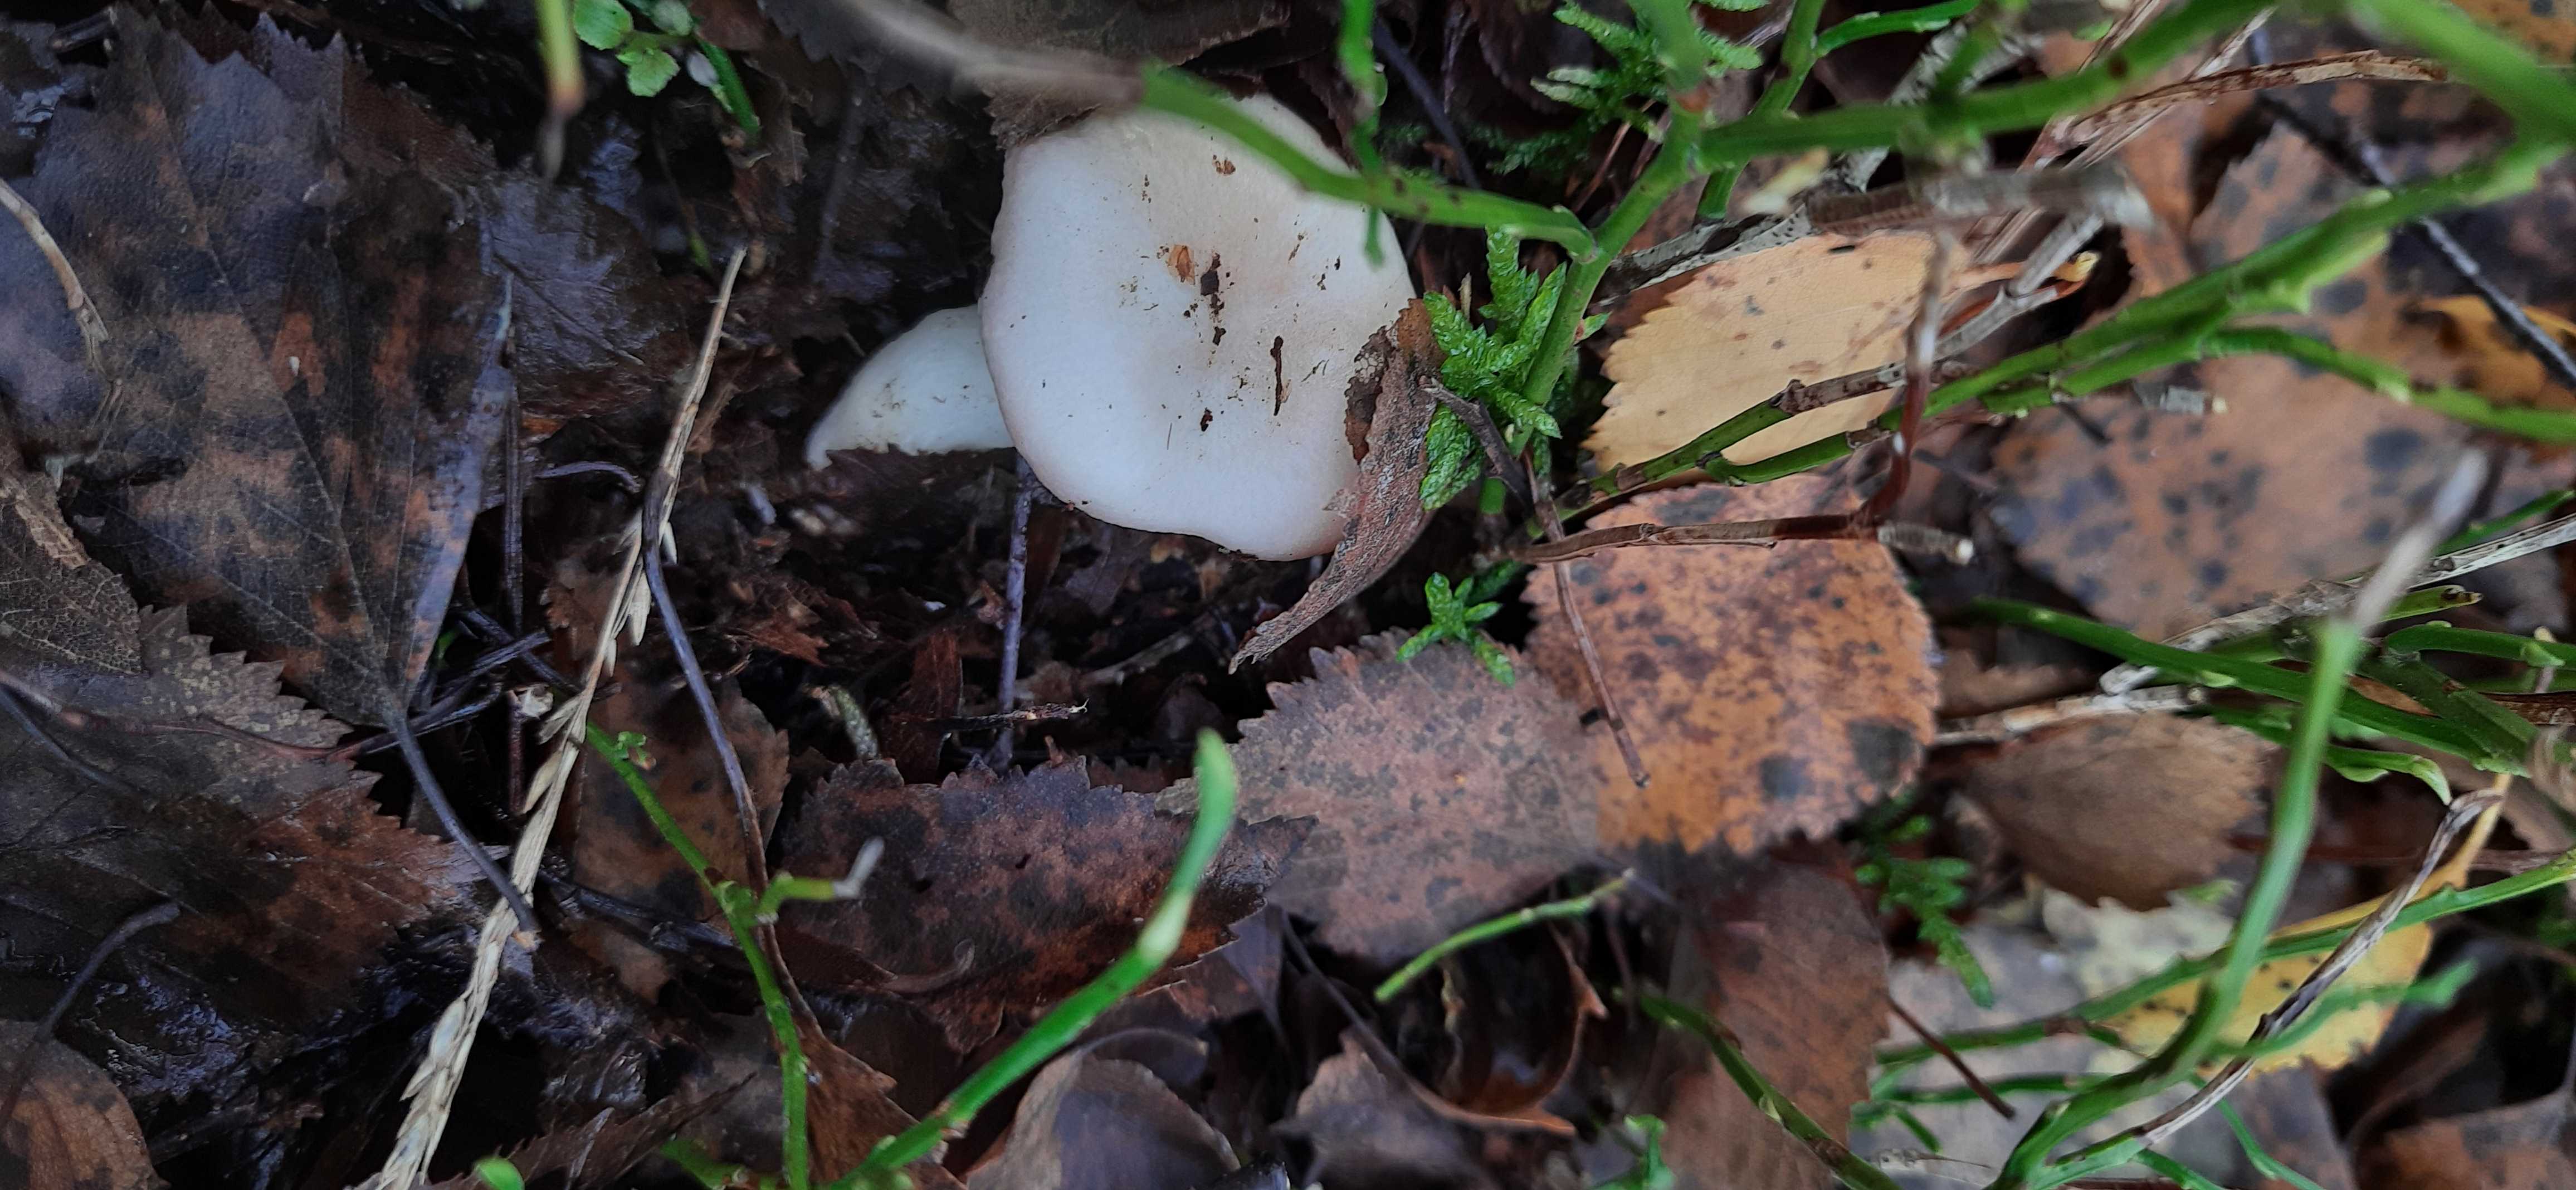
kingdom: Fungi
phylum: Basidiomycota
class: Agaricomycetes
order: Russulales
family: Russulaceae
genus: Russula
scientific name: Russula betularum
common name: bleg gift-skørhat
